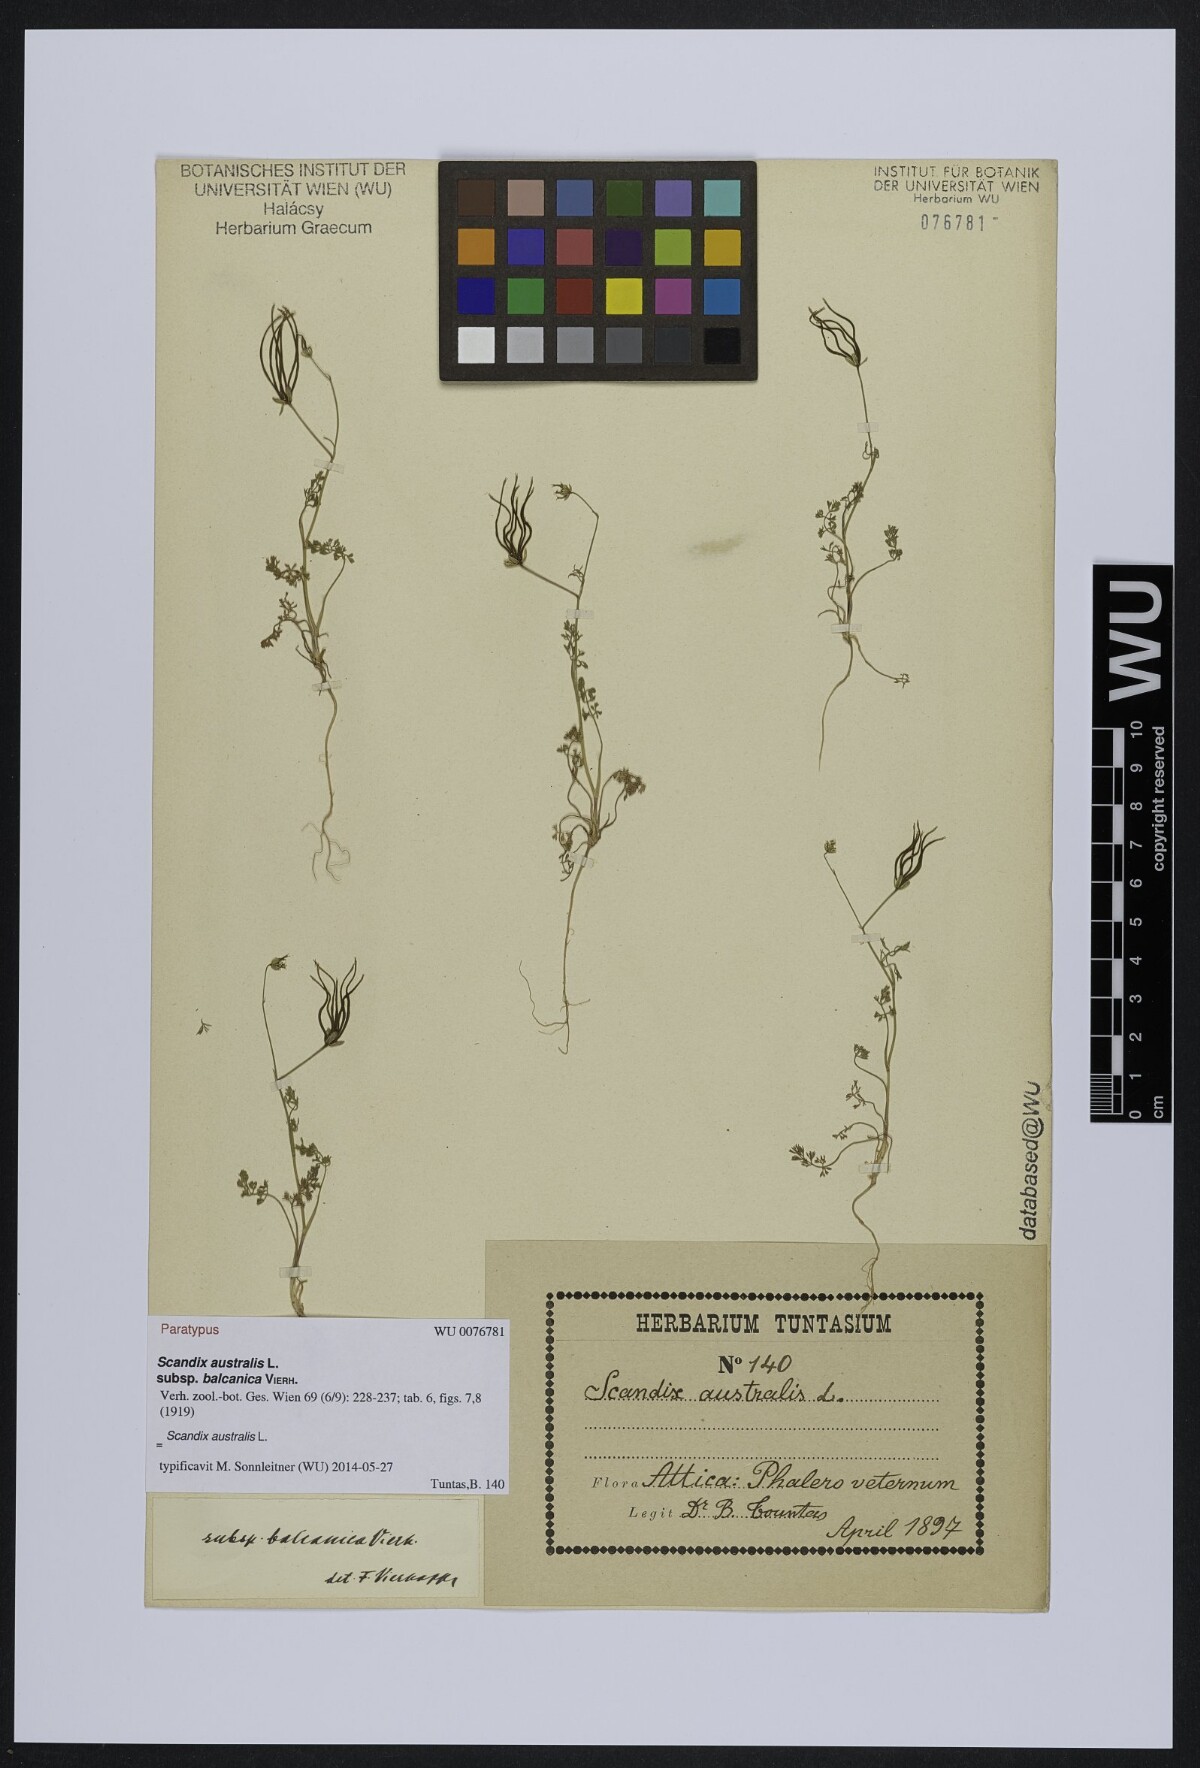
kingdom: Plantae
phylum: Tracheophyta
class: Magnoliopsida
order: Apiales
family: Apiaceae
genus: Scandix
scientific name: Scandix australis
